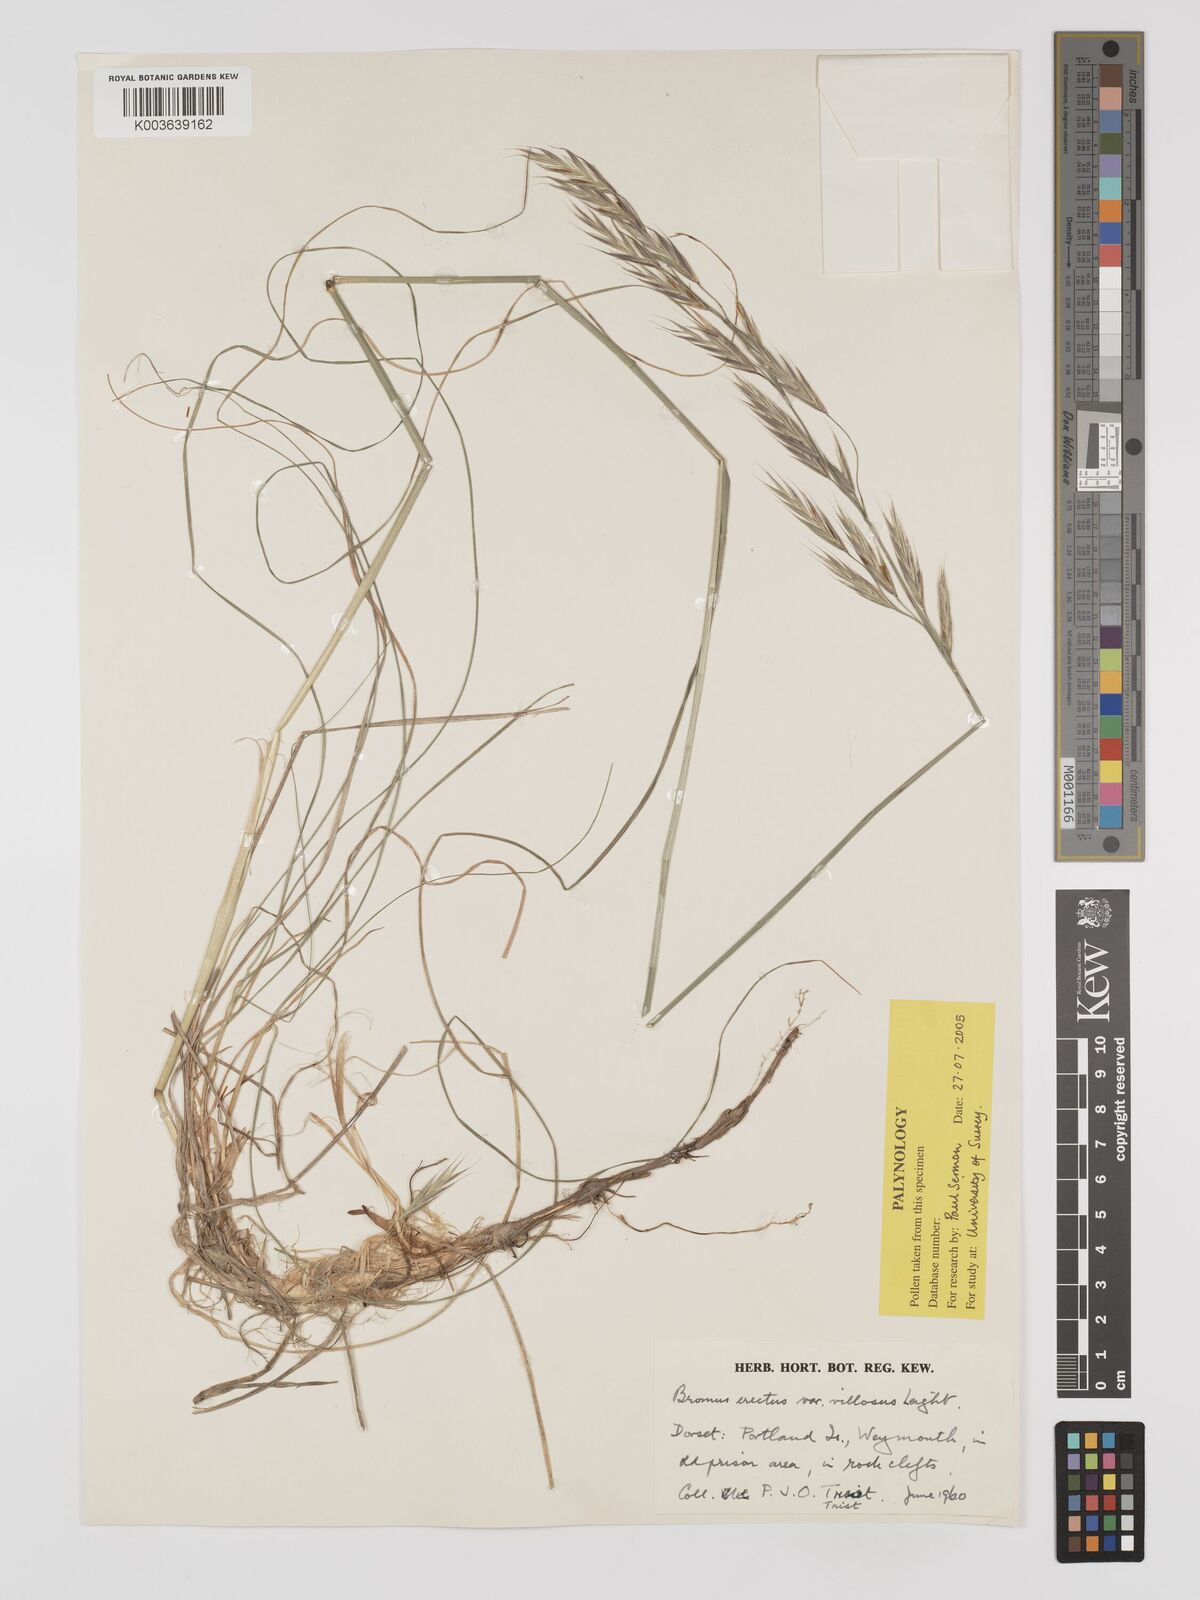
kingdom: Plantae
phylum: Tracheophyta
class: Liliopsida
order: Poales
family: Poaceae
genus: Bromus
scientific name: Bromus erectus
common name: Erect brome
